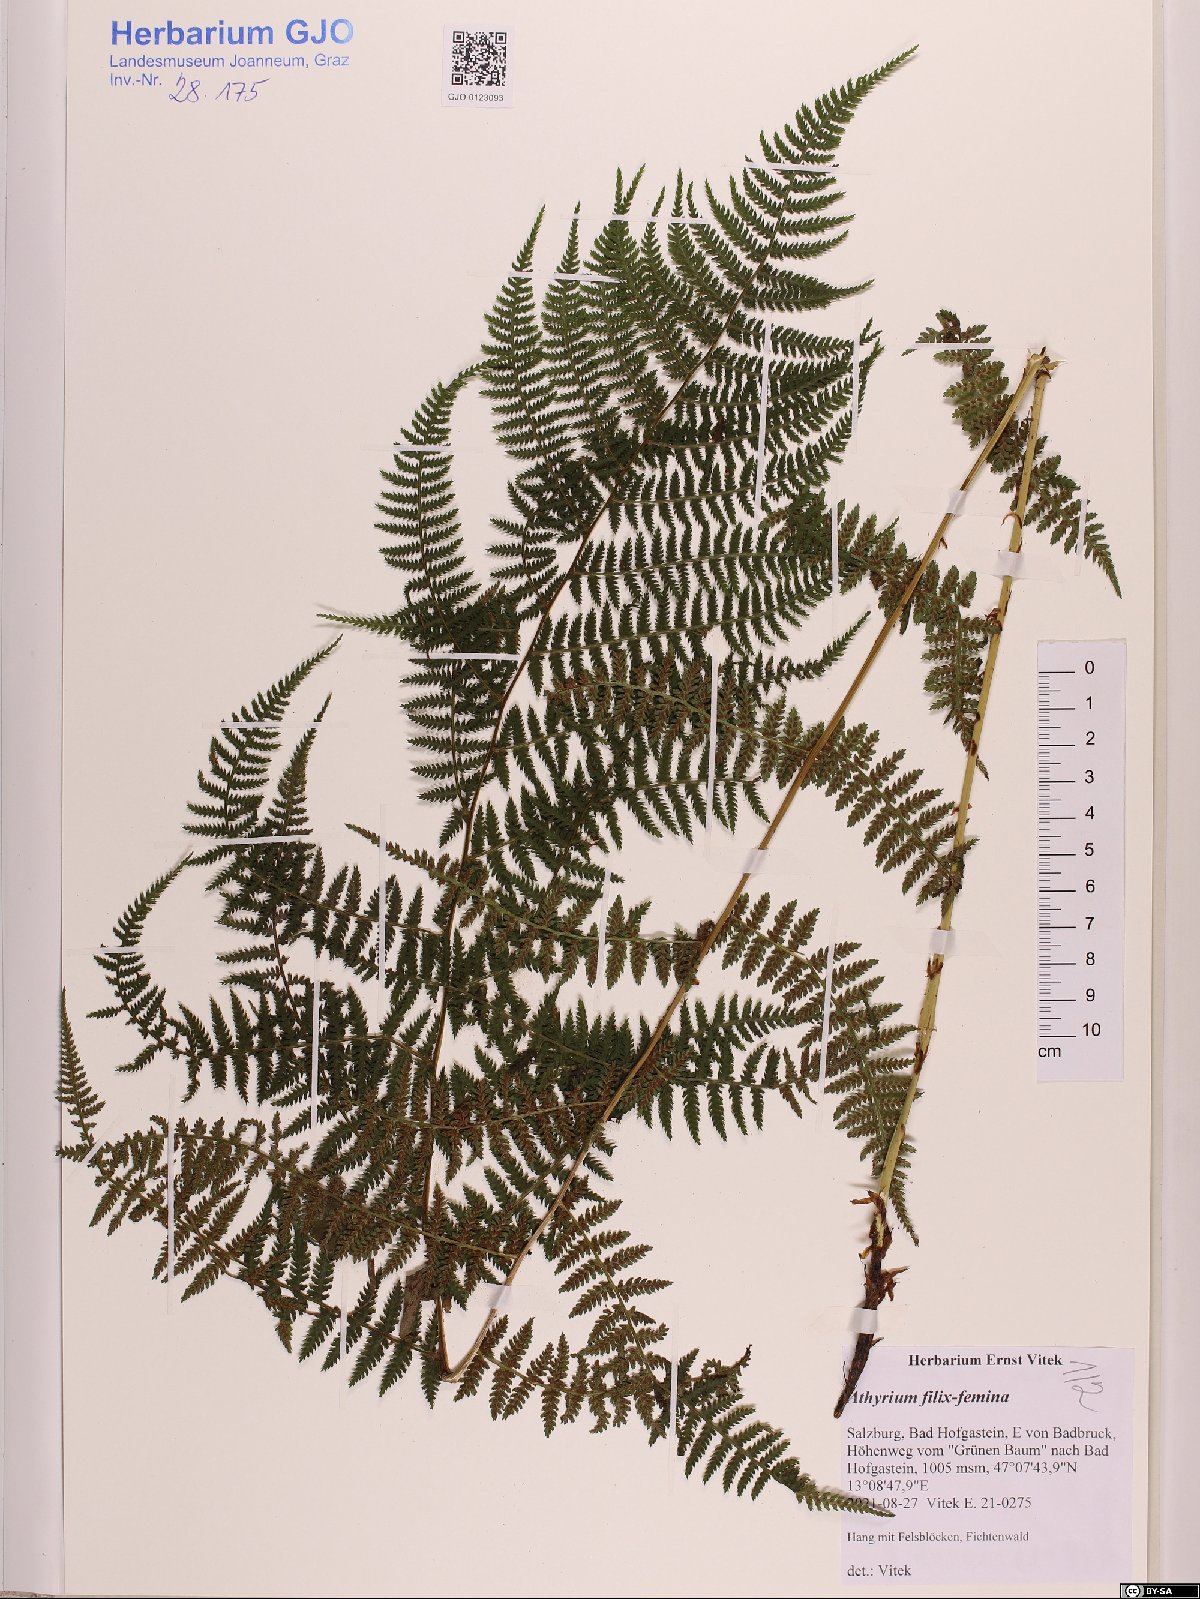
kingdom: Plantae
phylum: Tracheophyta
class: Polypodiopsida
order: Polypodiales
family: Athyriaceae
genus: Athyrium
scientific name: Athyrium filix-femina
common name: Lady fern
